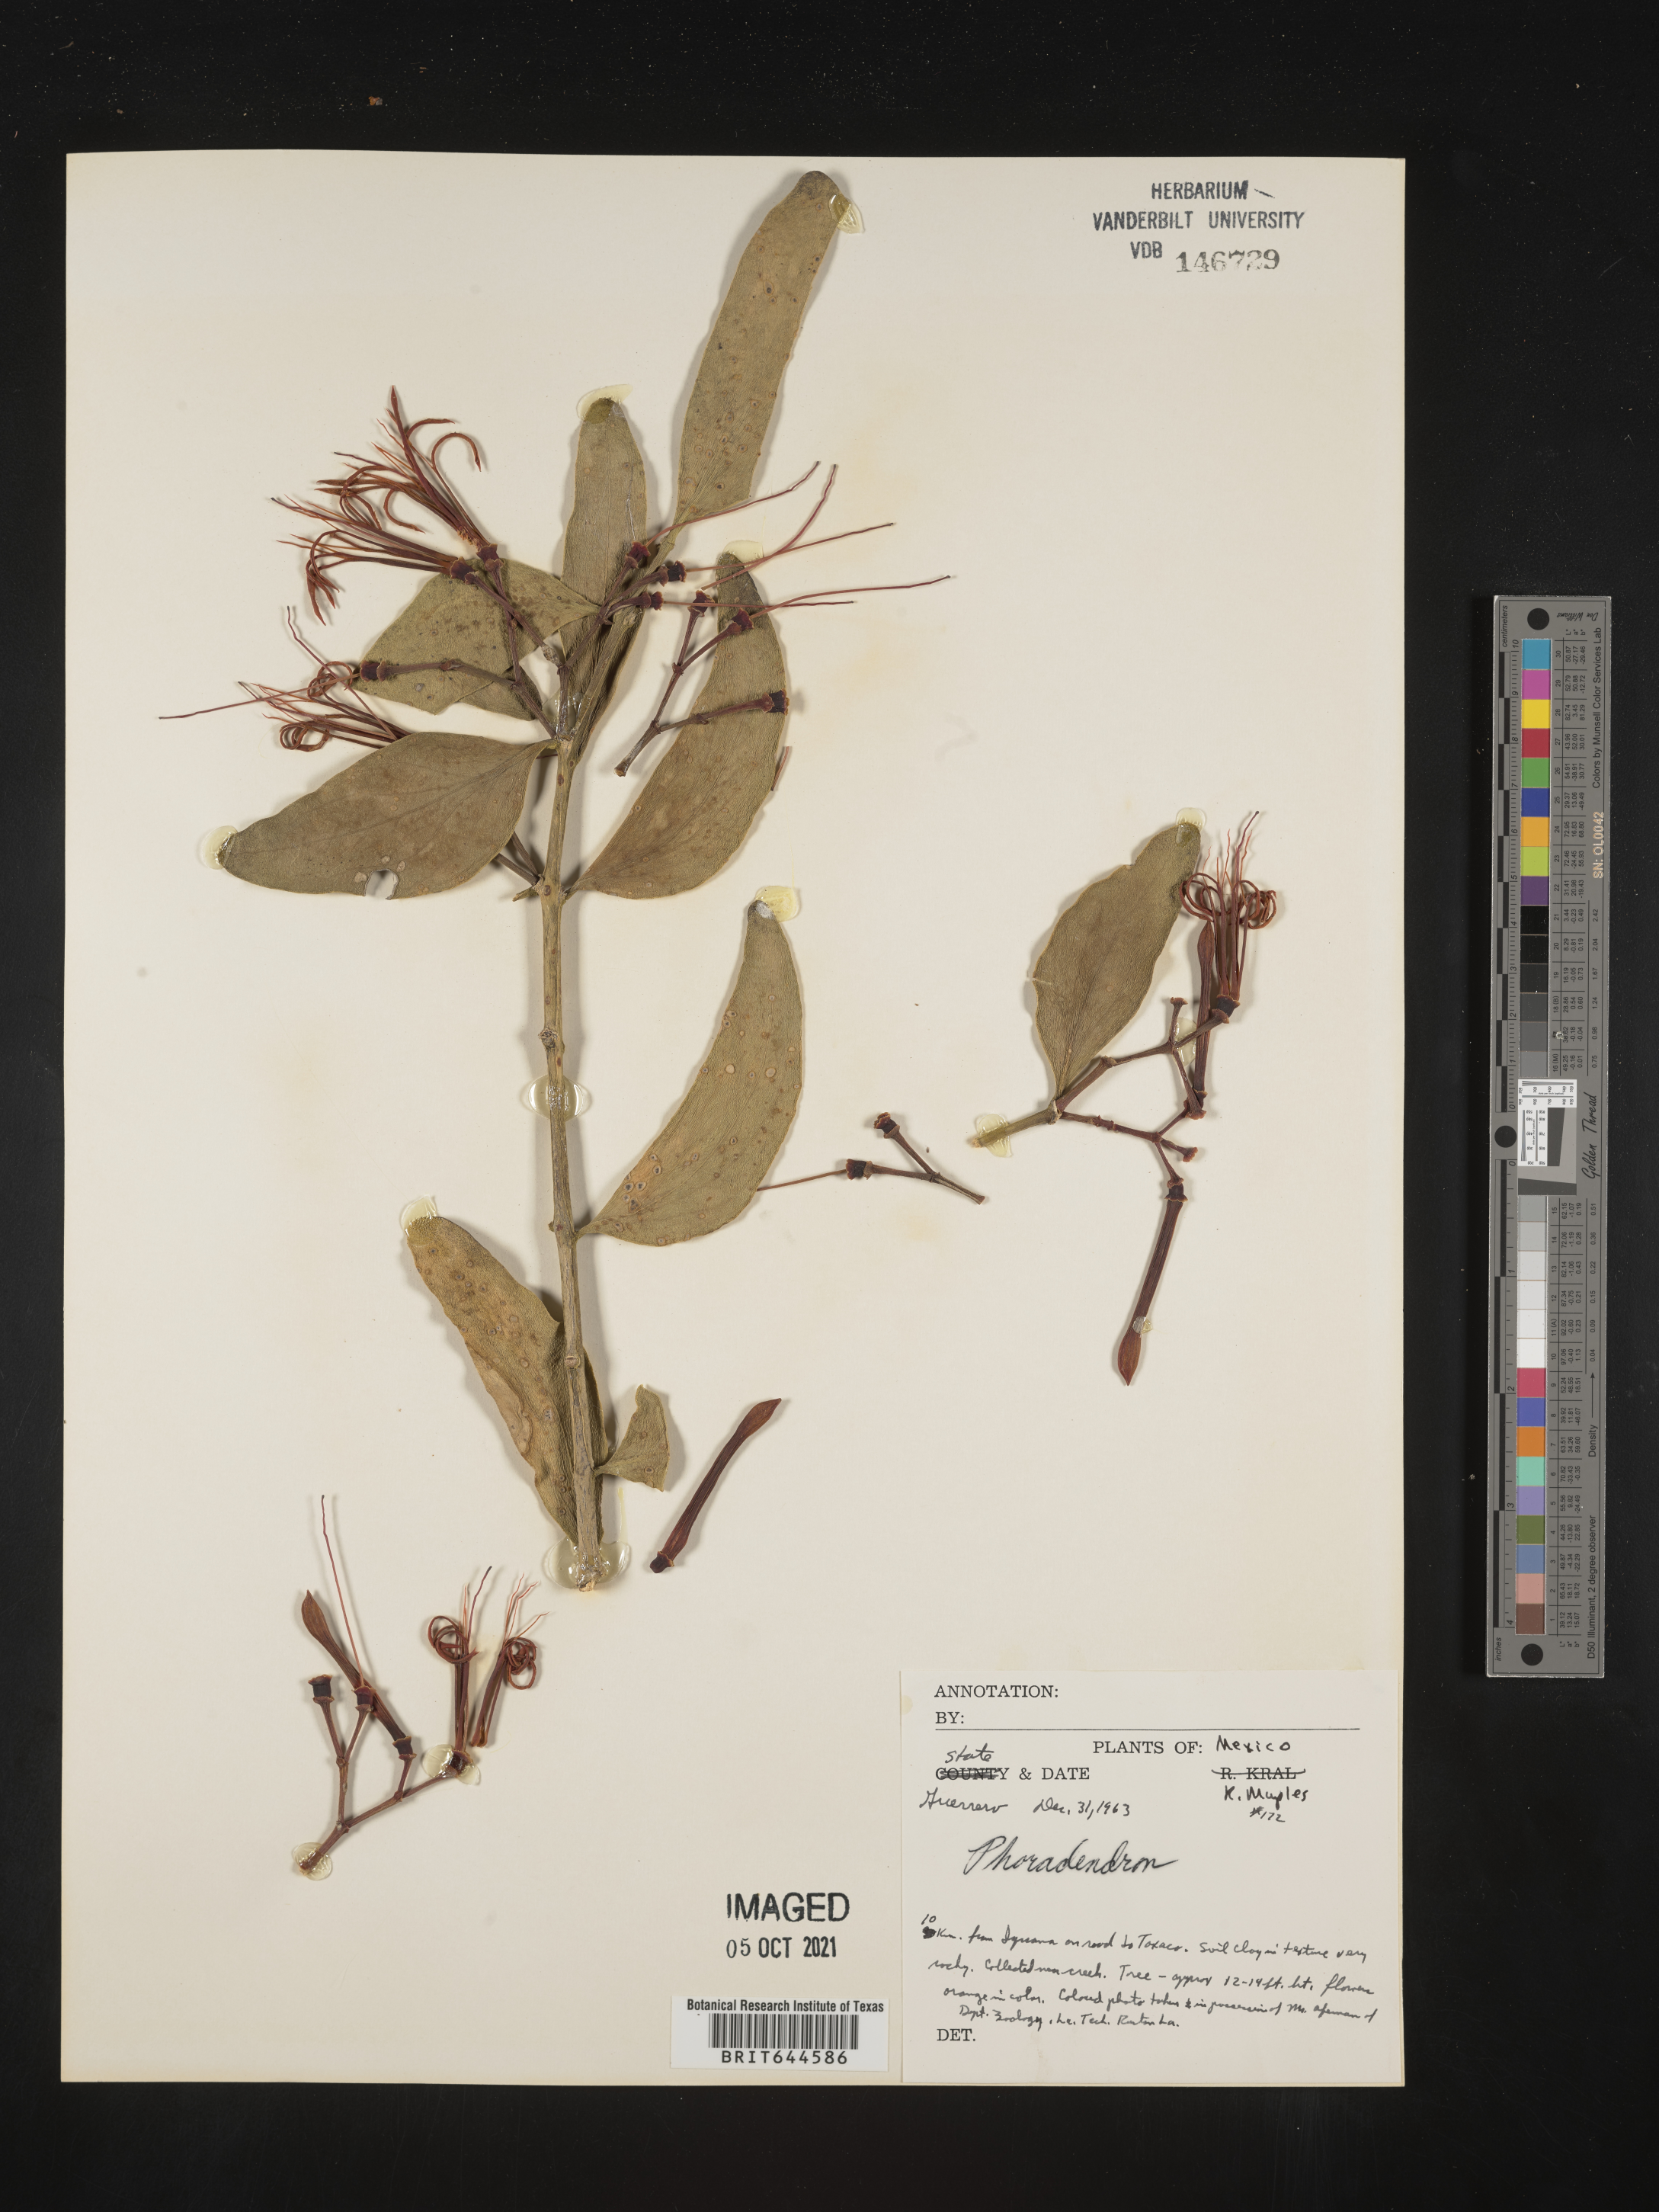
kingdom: Plantae
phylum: Tracheophyta
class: Magnoliopsida
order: Santalales
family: Viscaceae
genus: Phoradendron
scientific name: Phoradendron
